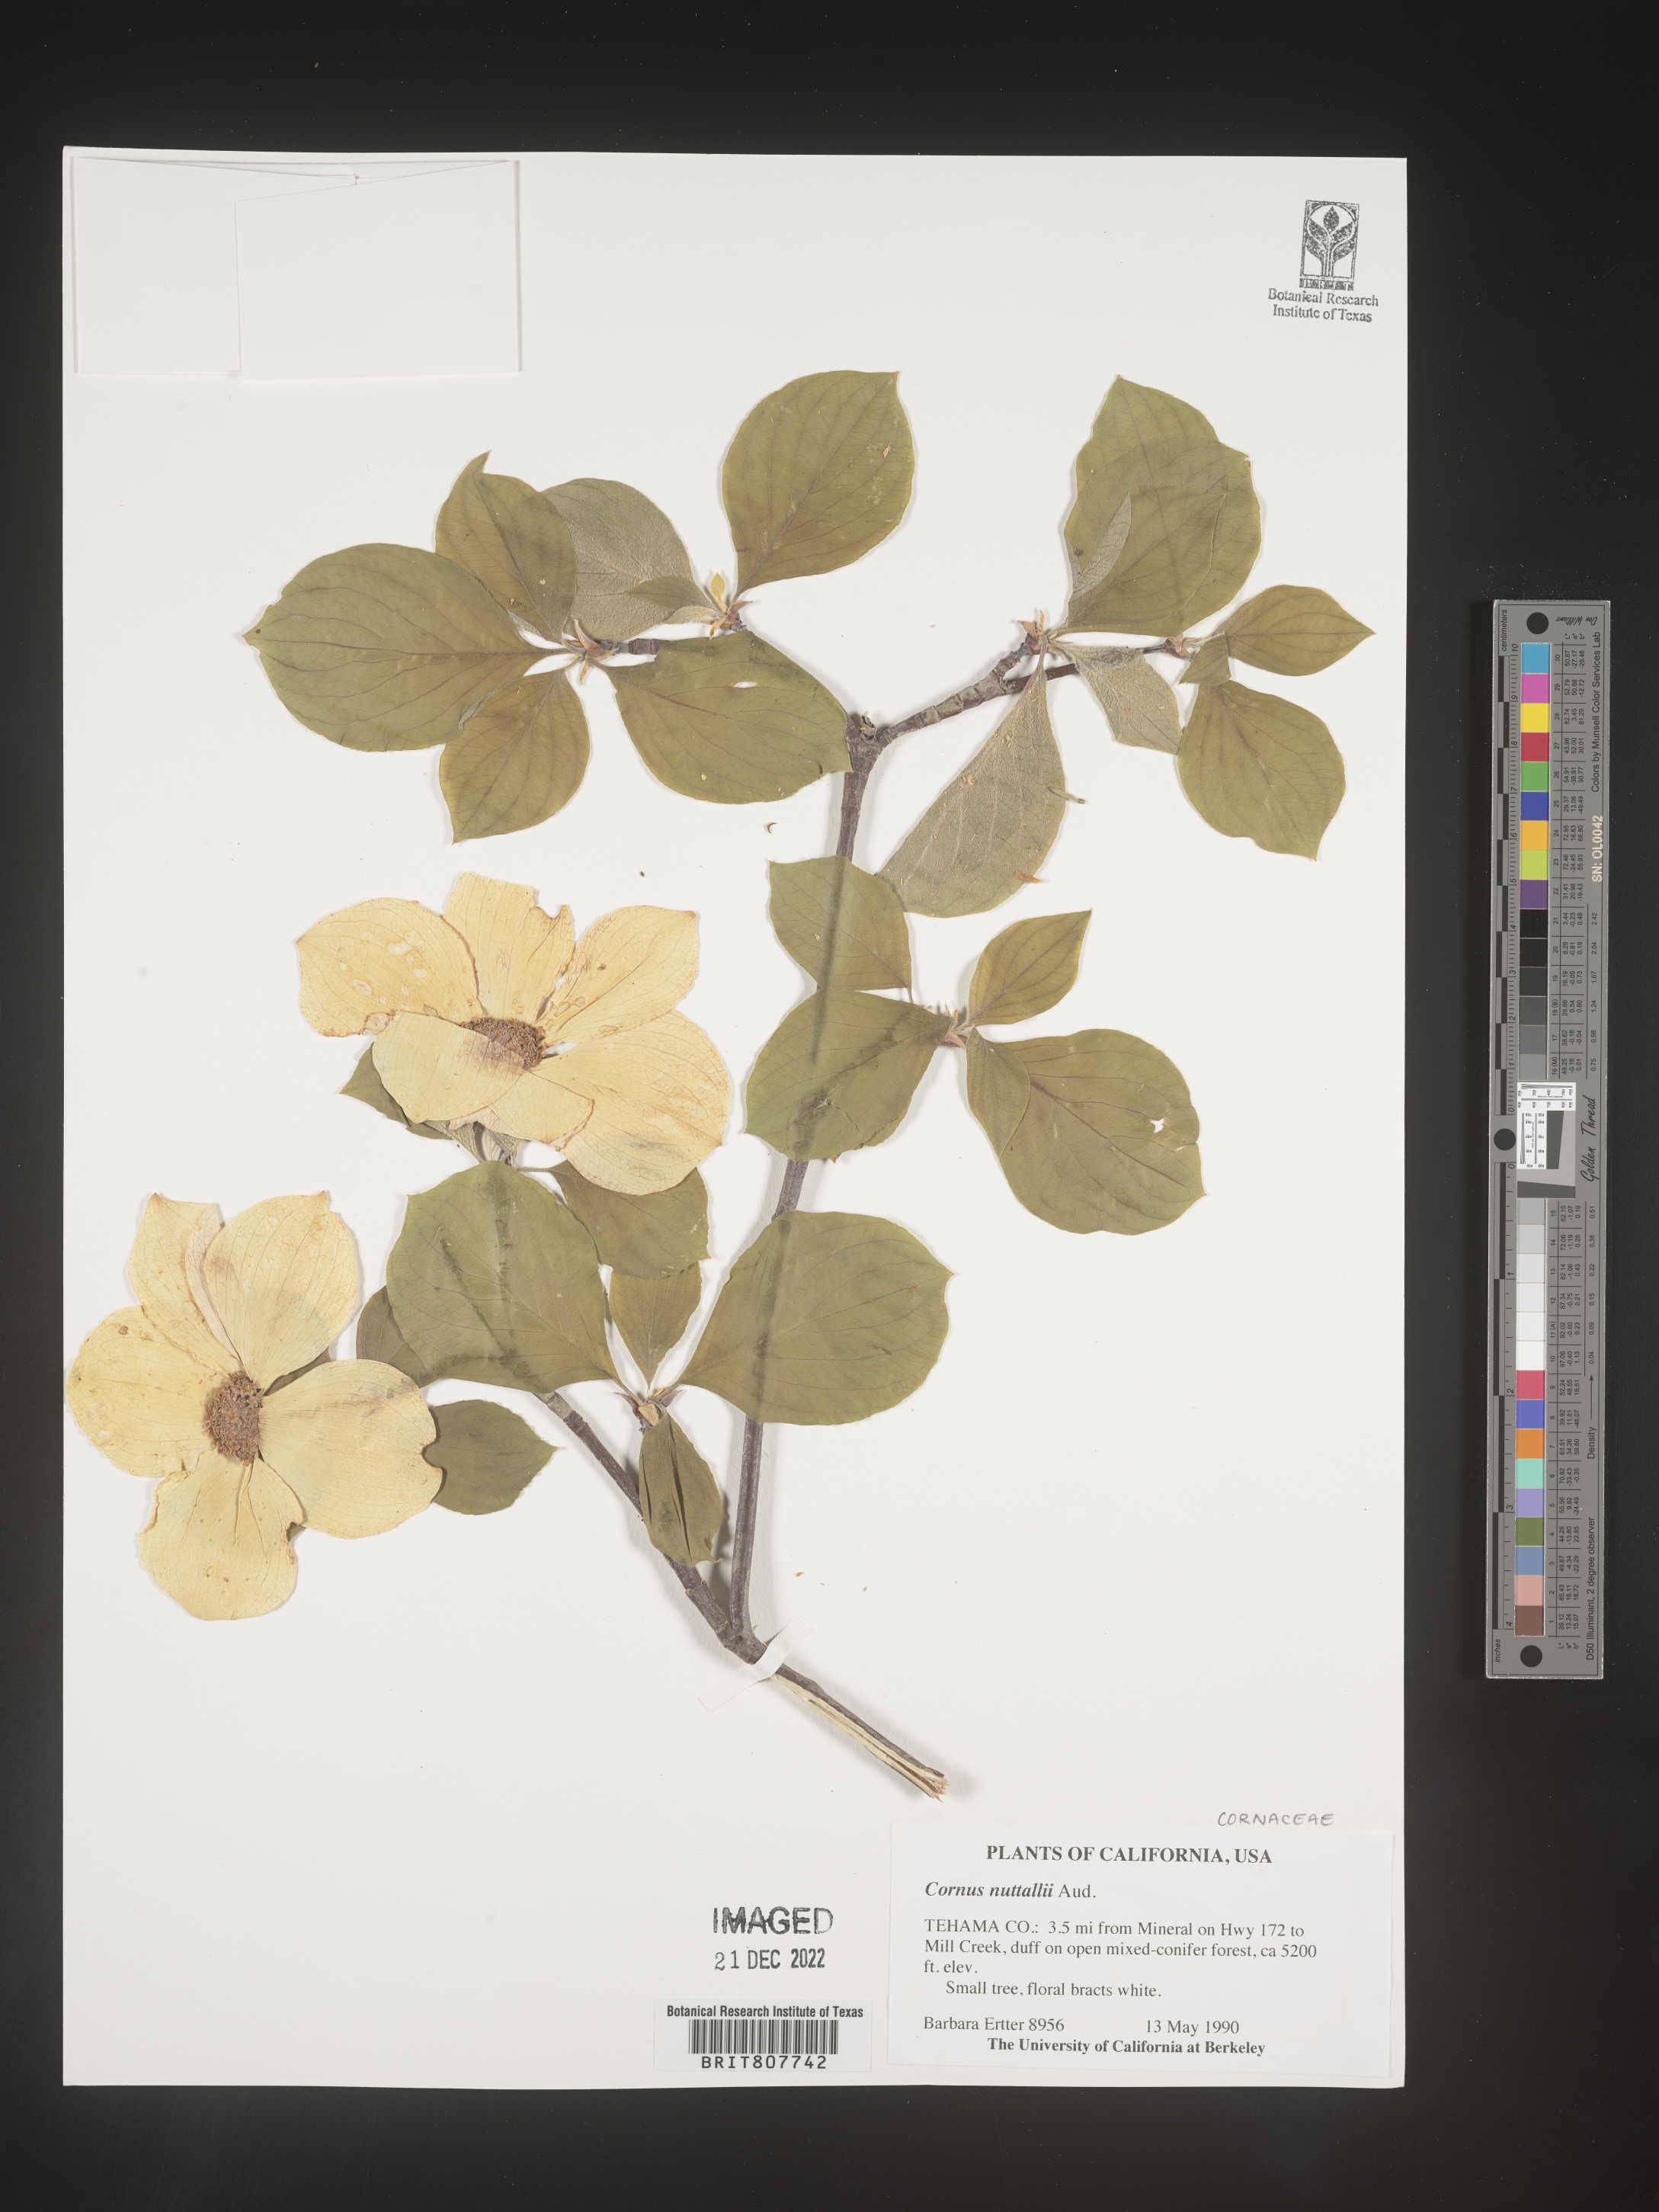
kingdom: Plantae
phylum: Tracheophyta
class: Magnoliopsida
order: Cornales
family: Cornaceae
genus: Cornus
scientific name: Cornus nuttallii
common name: Pacific dogwood
